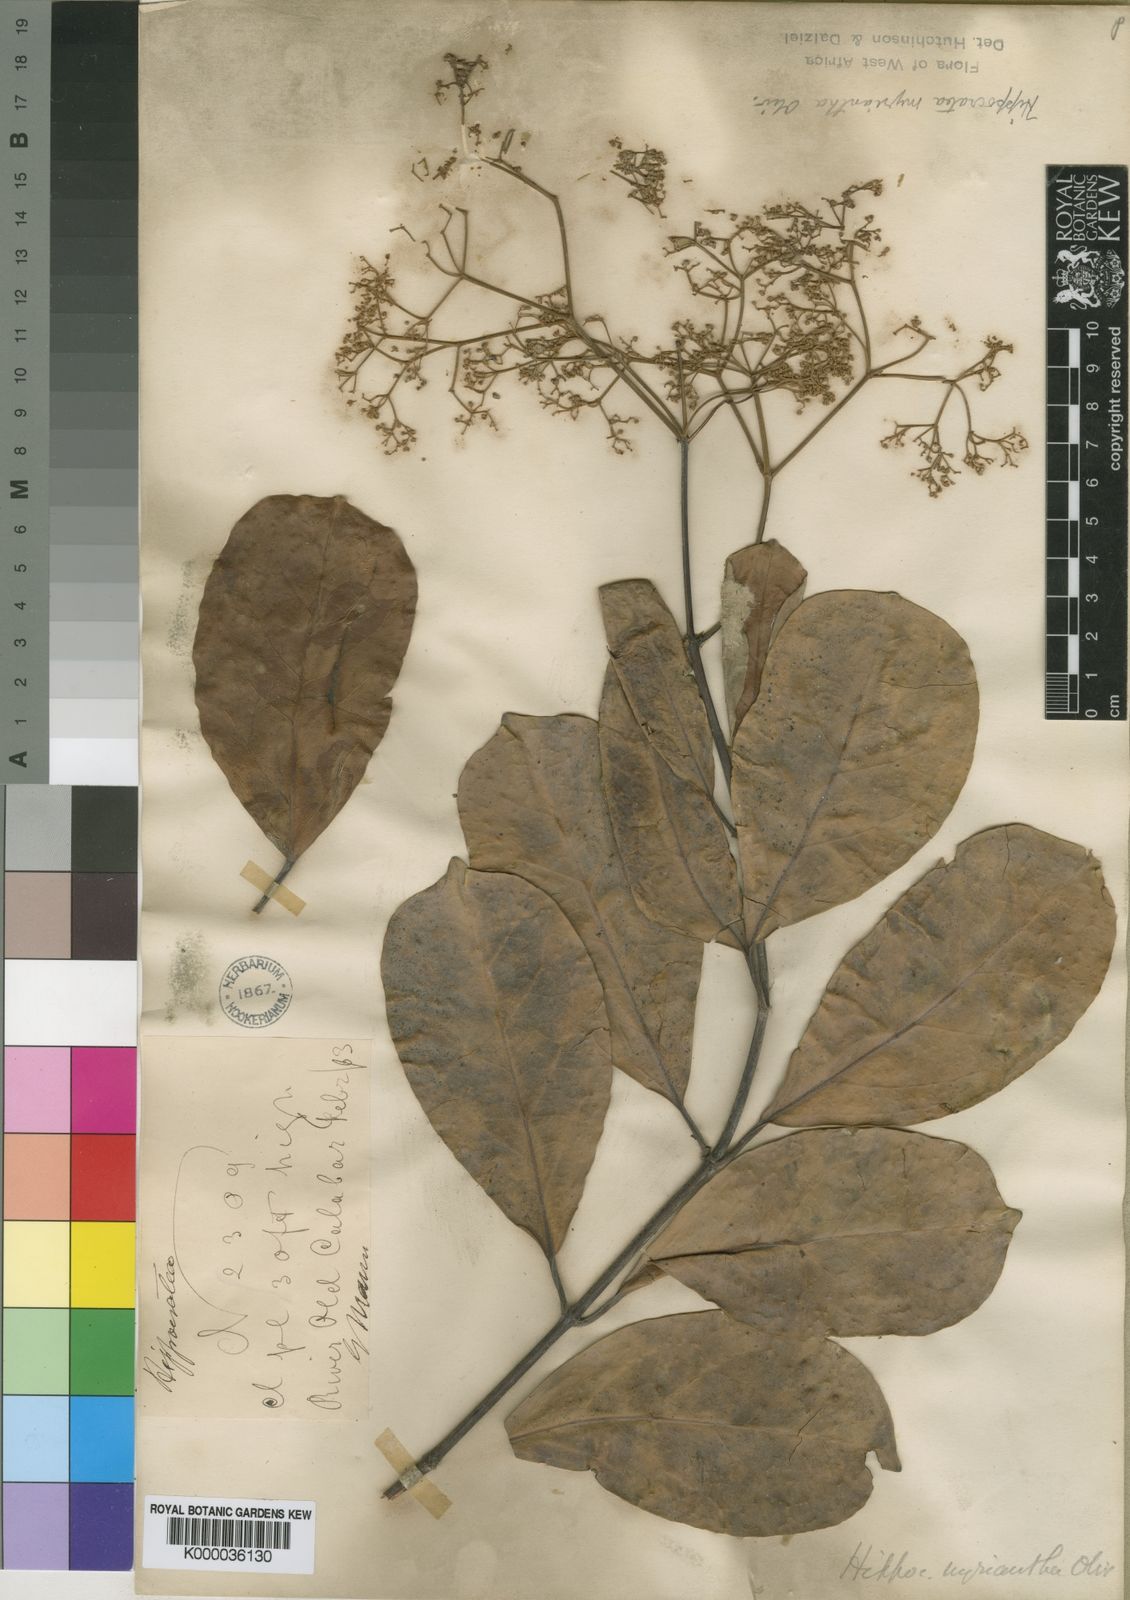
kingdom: Plantae
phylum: Tracheophyta
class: Magnoliopsida
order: Celastrales
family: Celastraceae
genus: Hippocratea
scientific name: Hippocratea myriantha
